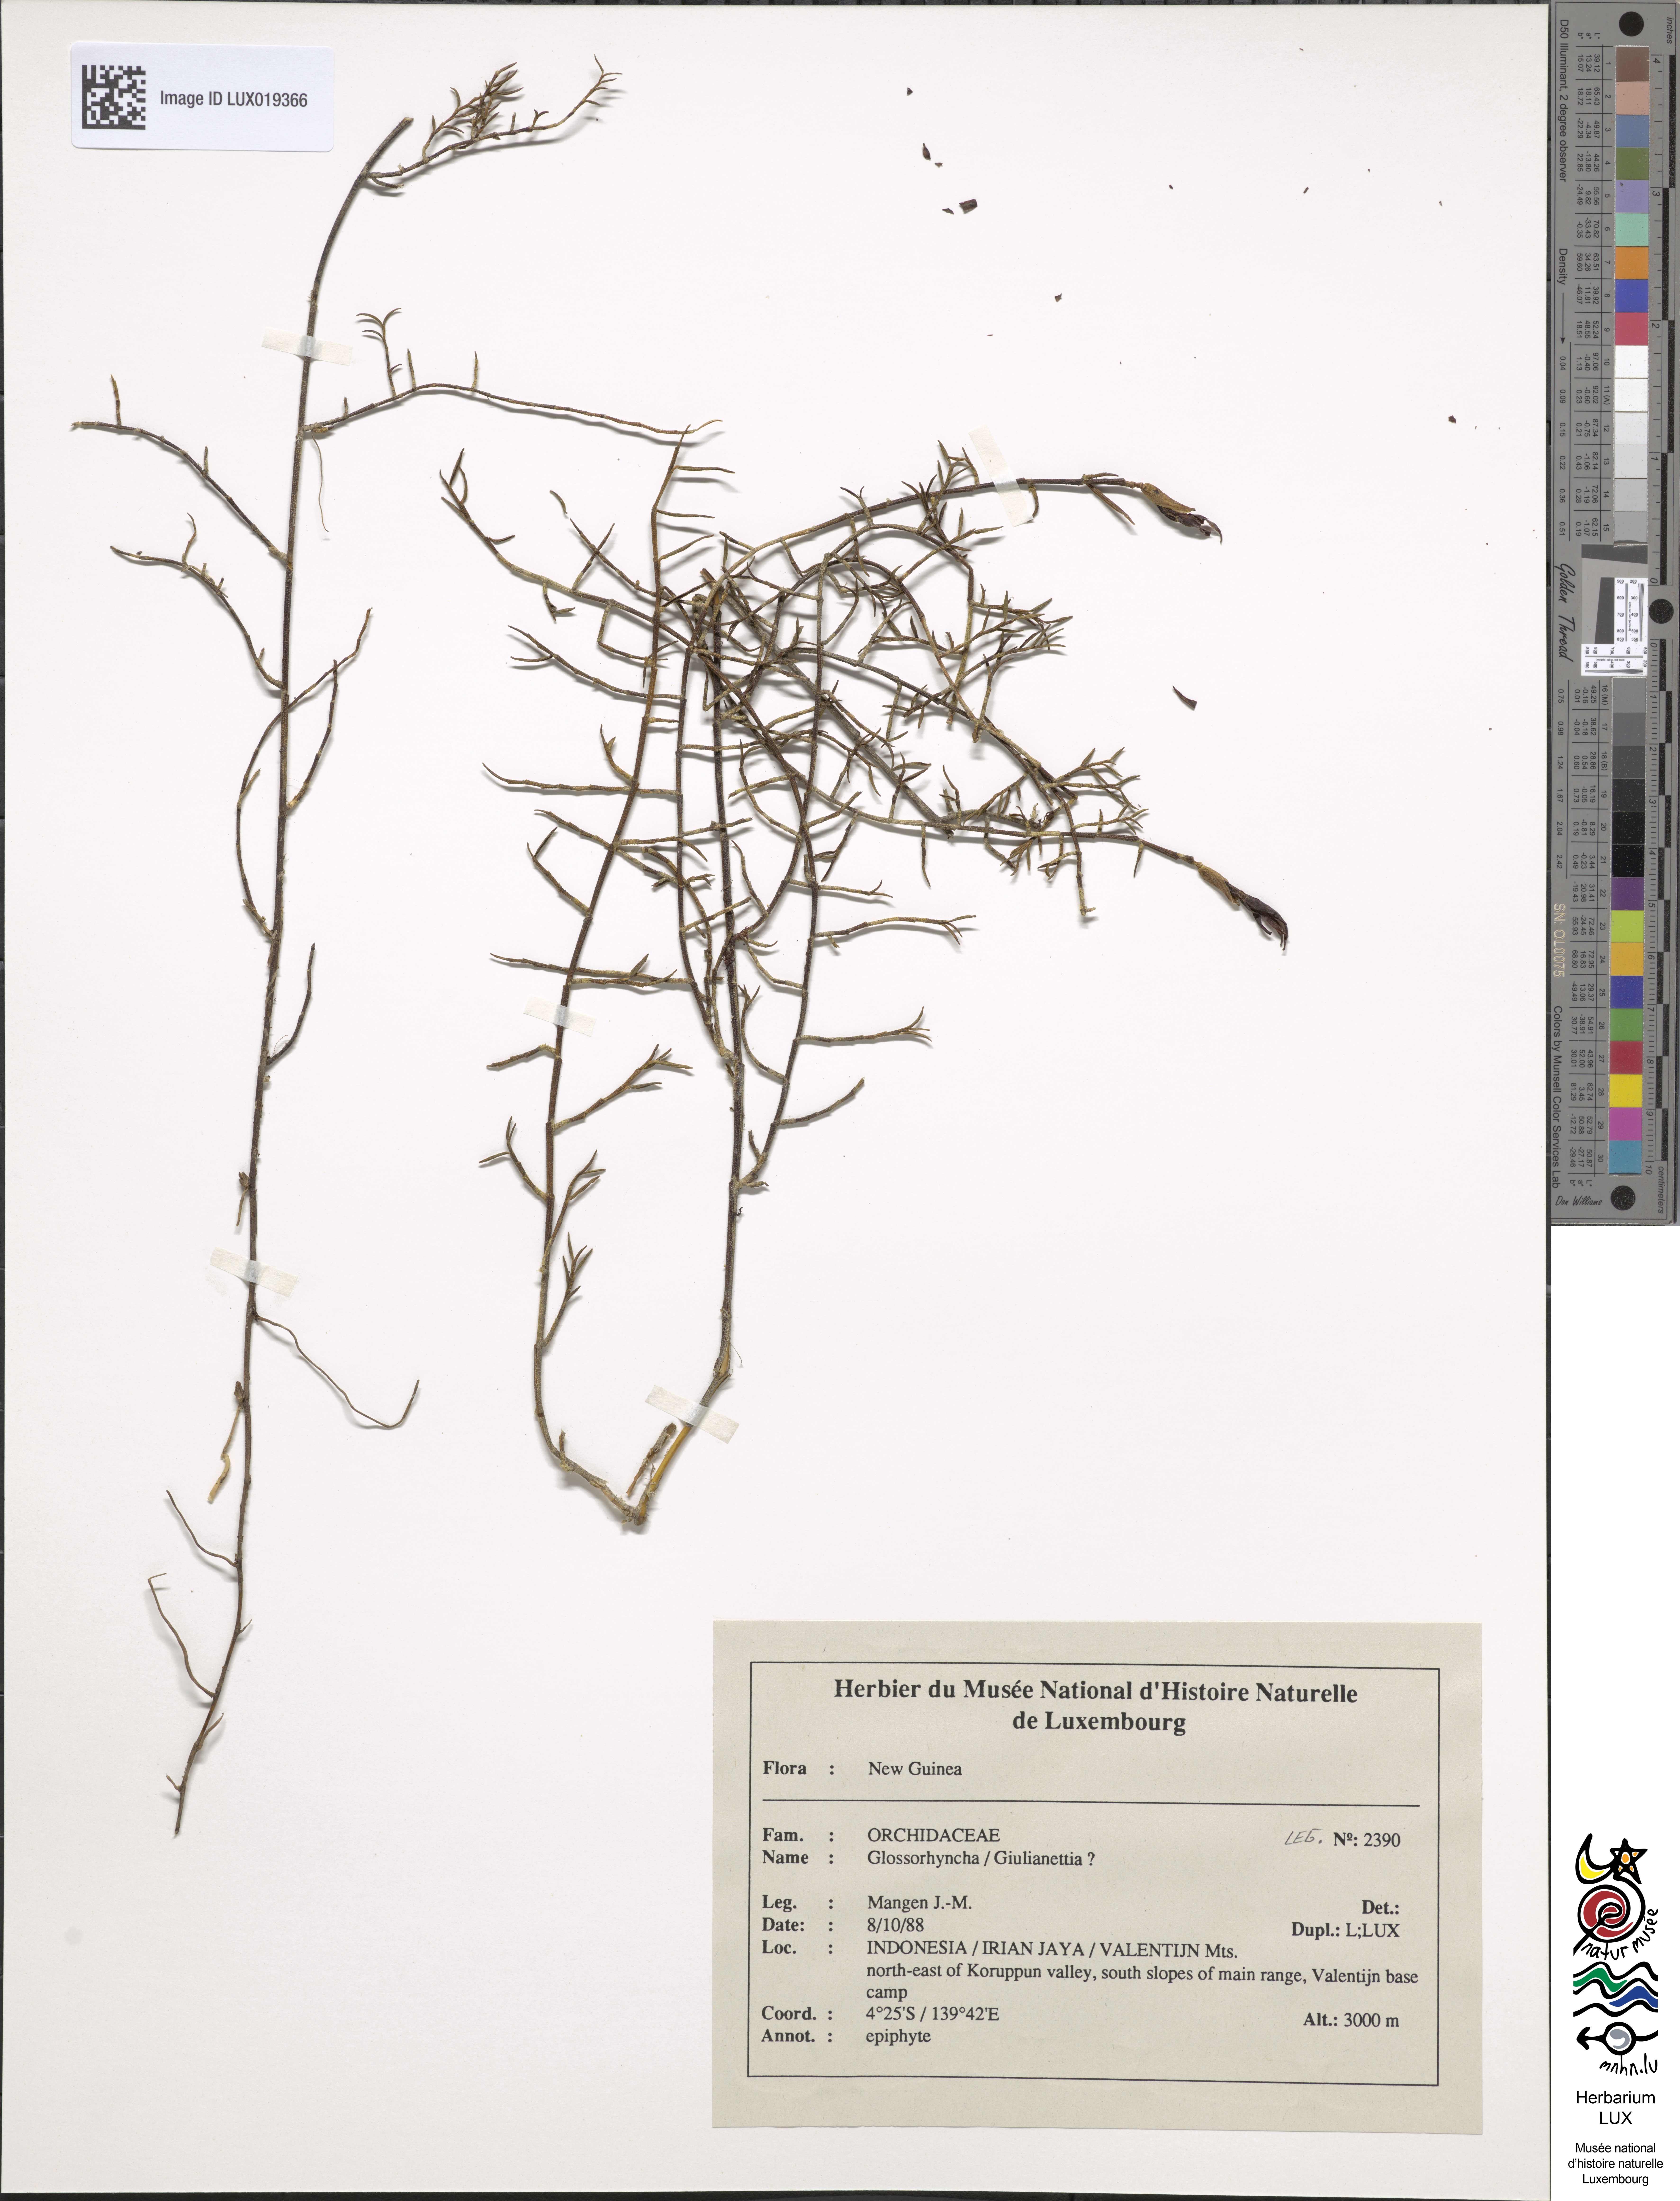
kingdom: Plantae
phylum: Tracheophyta
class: Liliopsida
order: Asparagales
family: Orchidaceae
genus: Glomera
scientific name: Glomera
